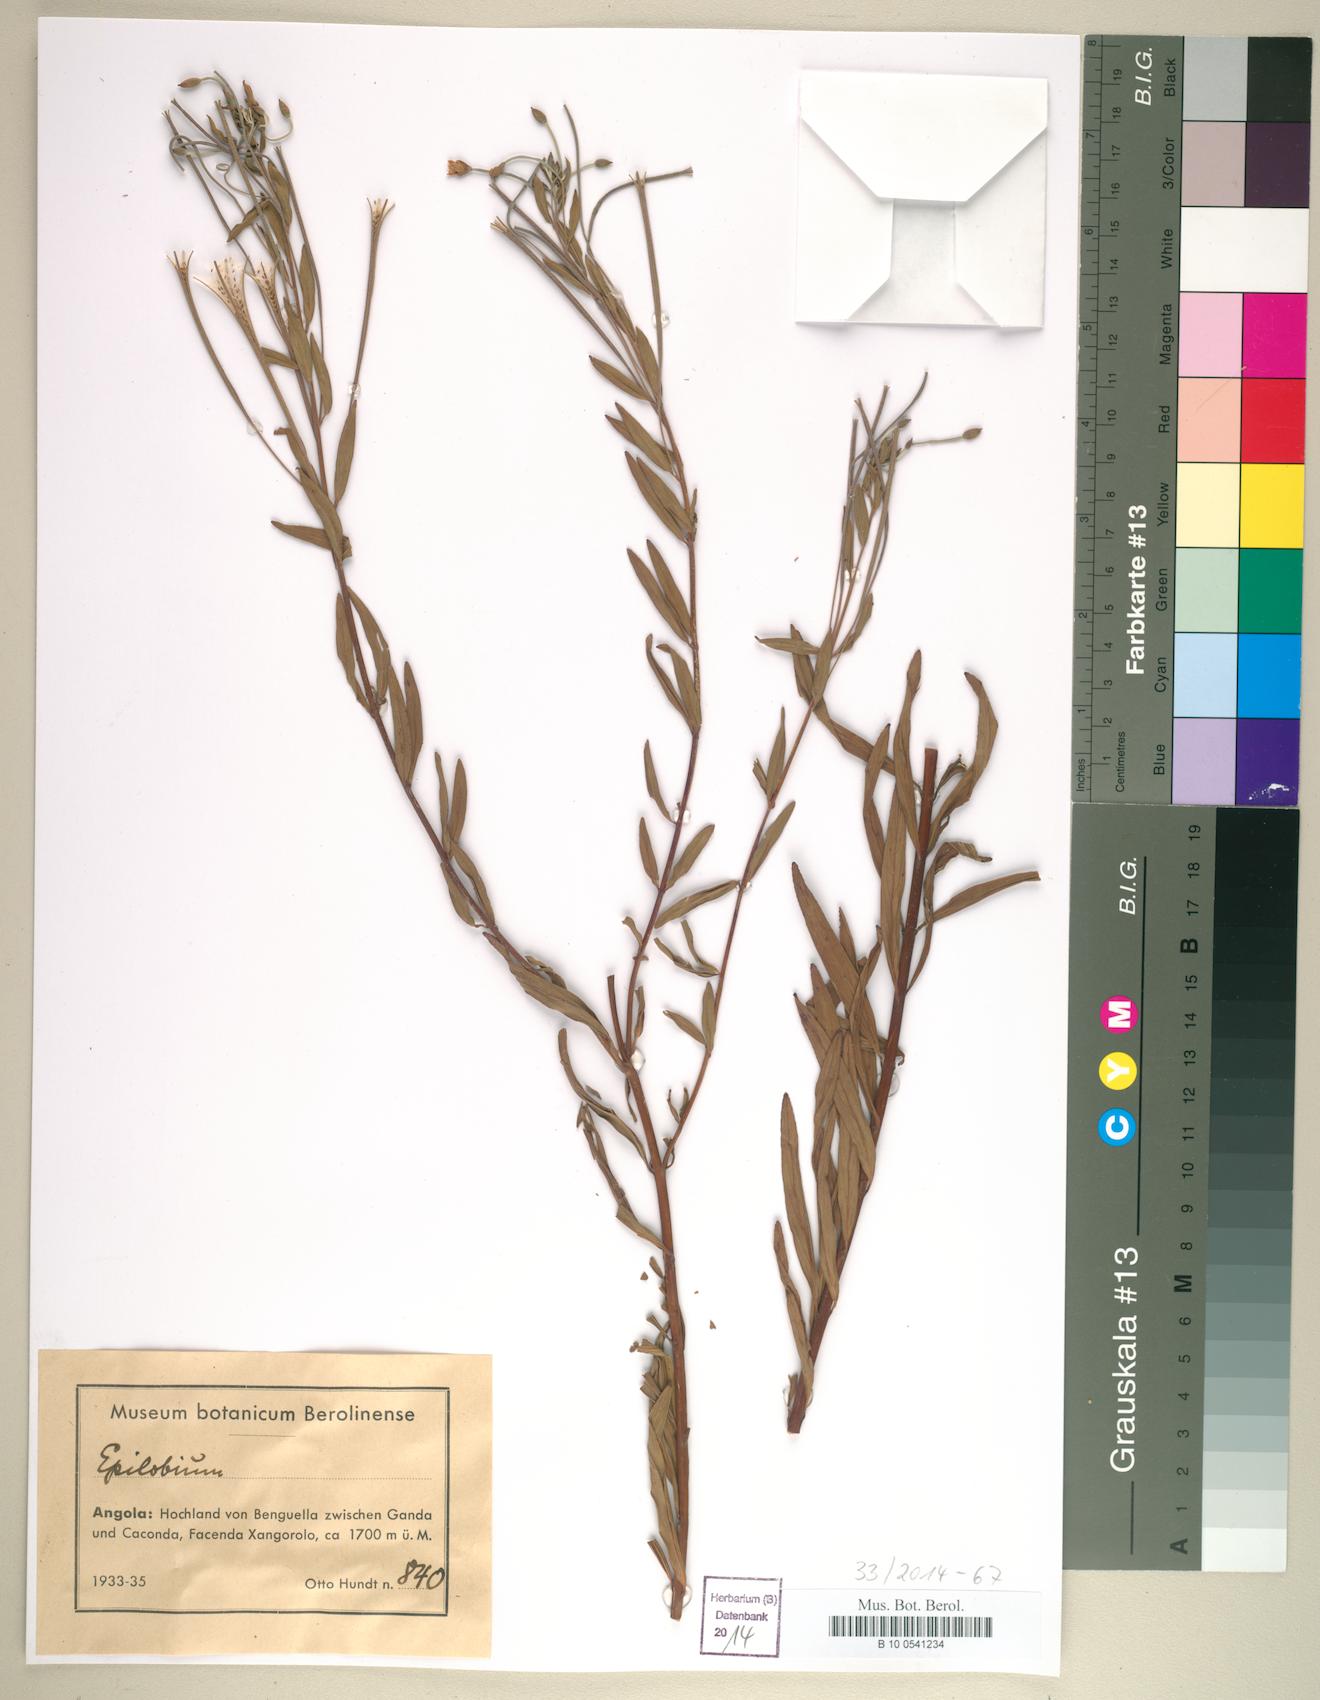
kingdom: Plantae
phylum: Tracheophyta
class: Magnoliopsida
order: Myrtales
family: Onagraceae
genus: Epilobium
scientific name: Epilobium
